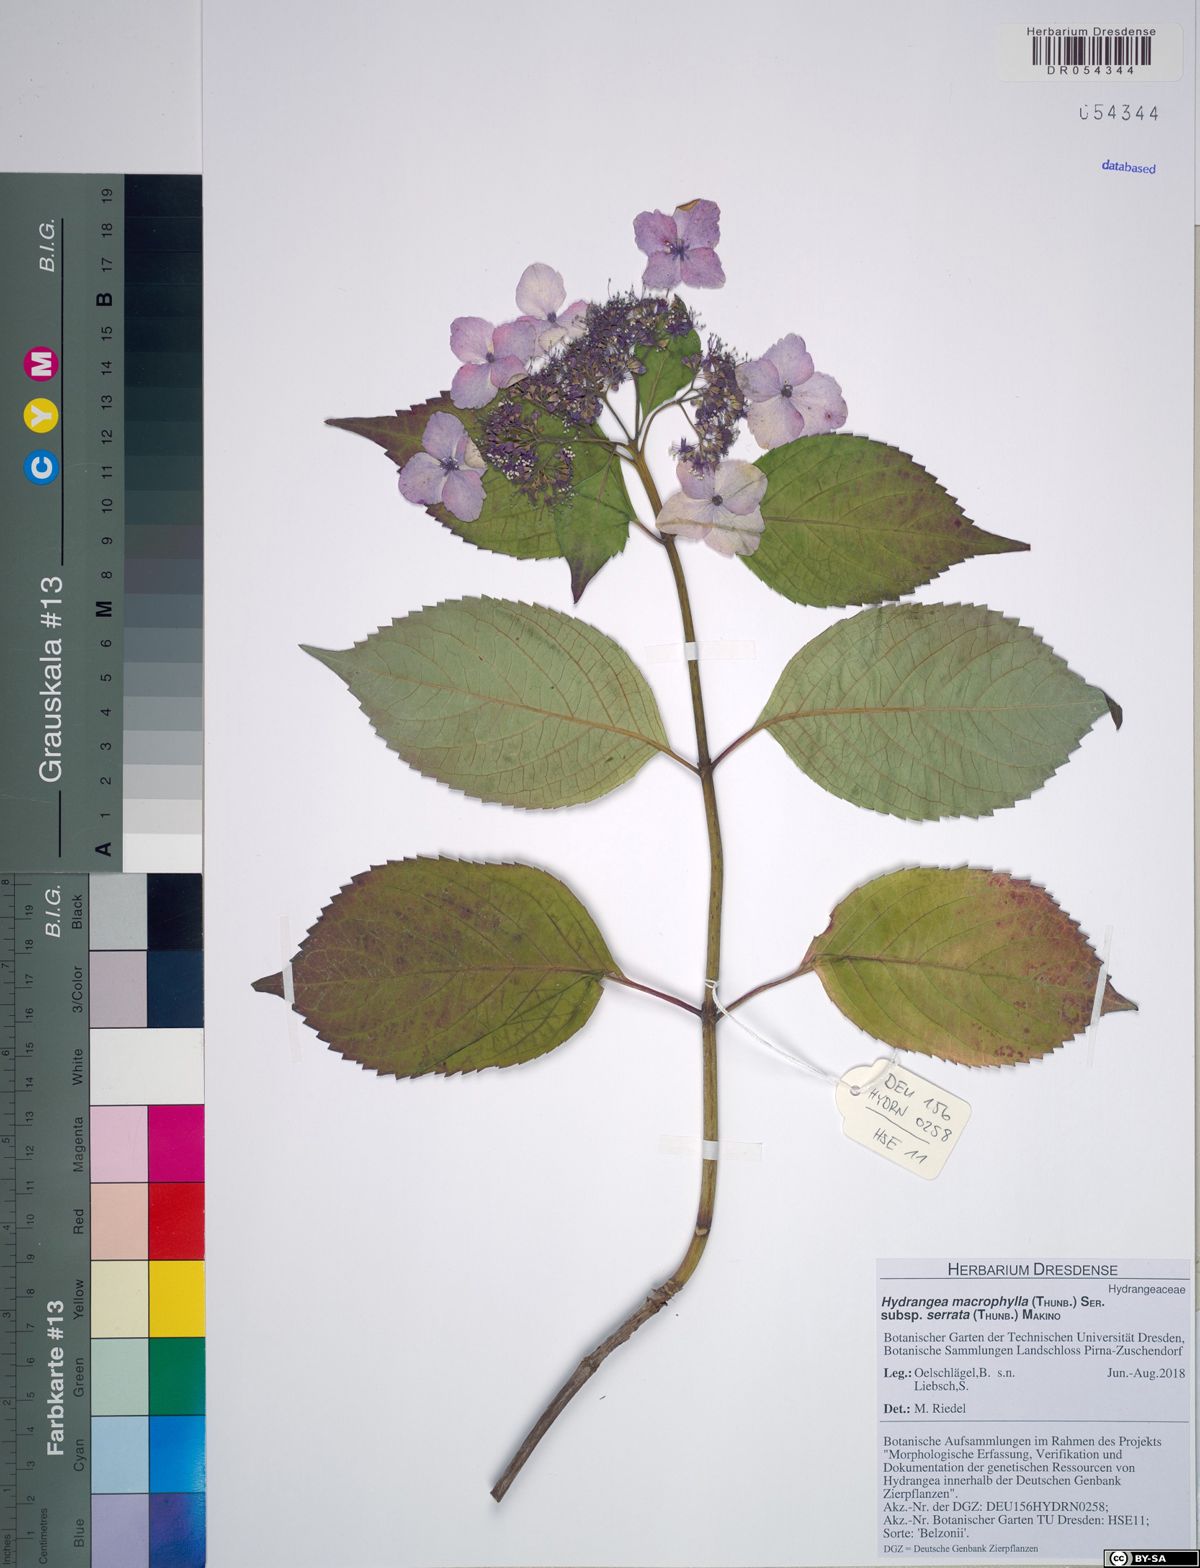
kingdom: Plantae
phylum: Tracheophyta
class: Magnoliopsida
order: Cornales
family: Hydrangeaceae
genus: Hydrangea
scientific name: Hydrangea serrata
